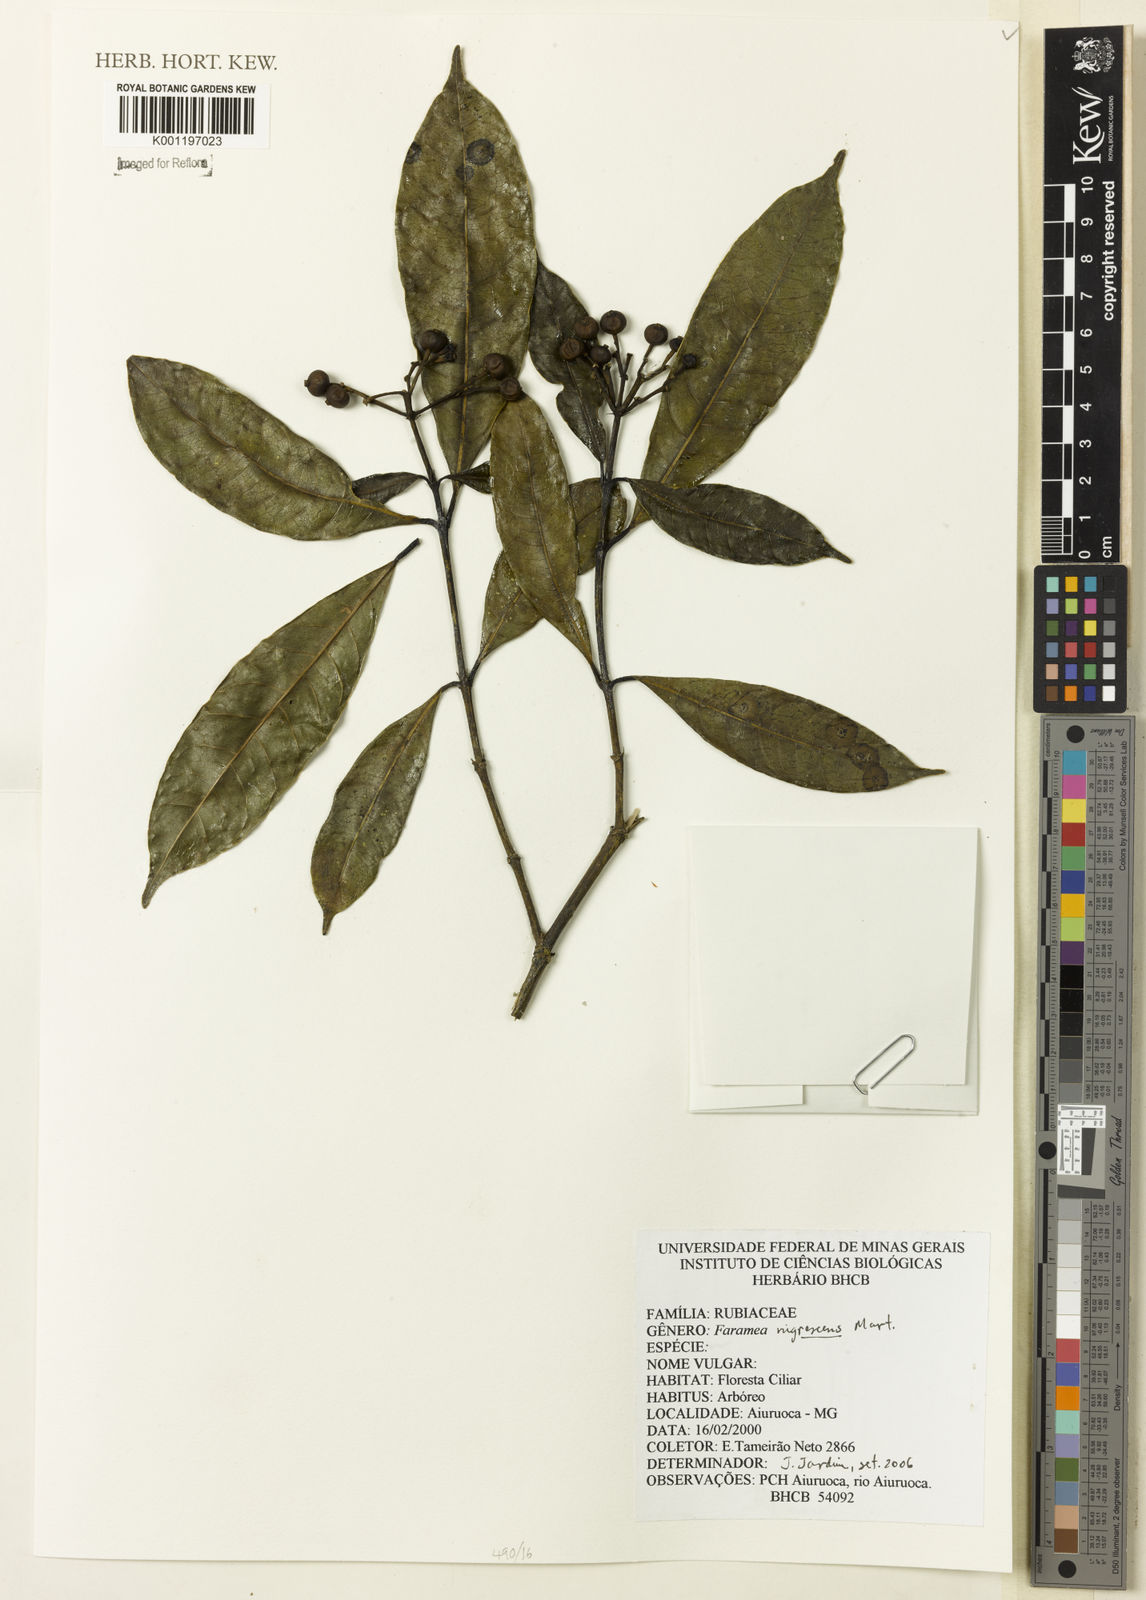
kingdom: Plantae
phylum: Tracheophyta
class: Magnoliopsida
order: Gentianales
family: Rubiaceae
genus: Faramea
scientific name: Faramea nigrescens
